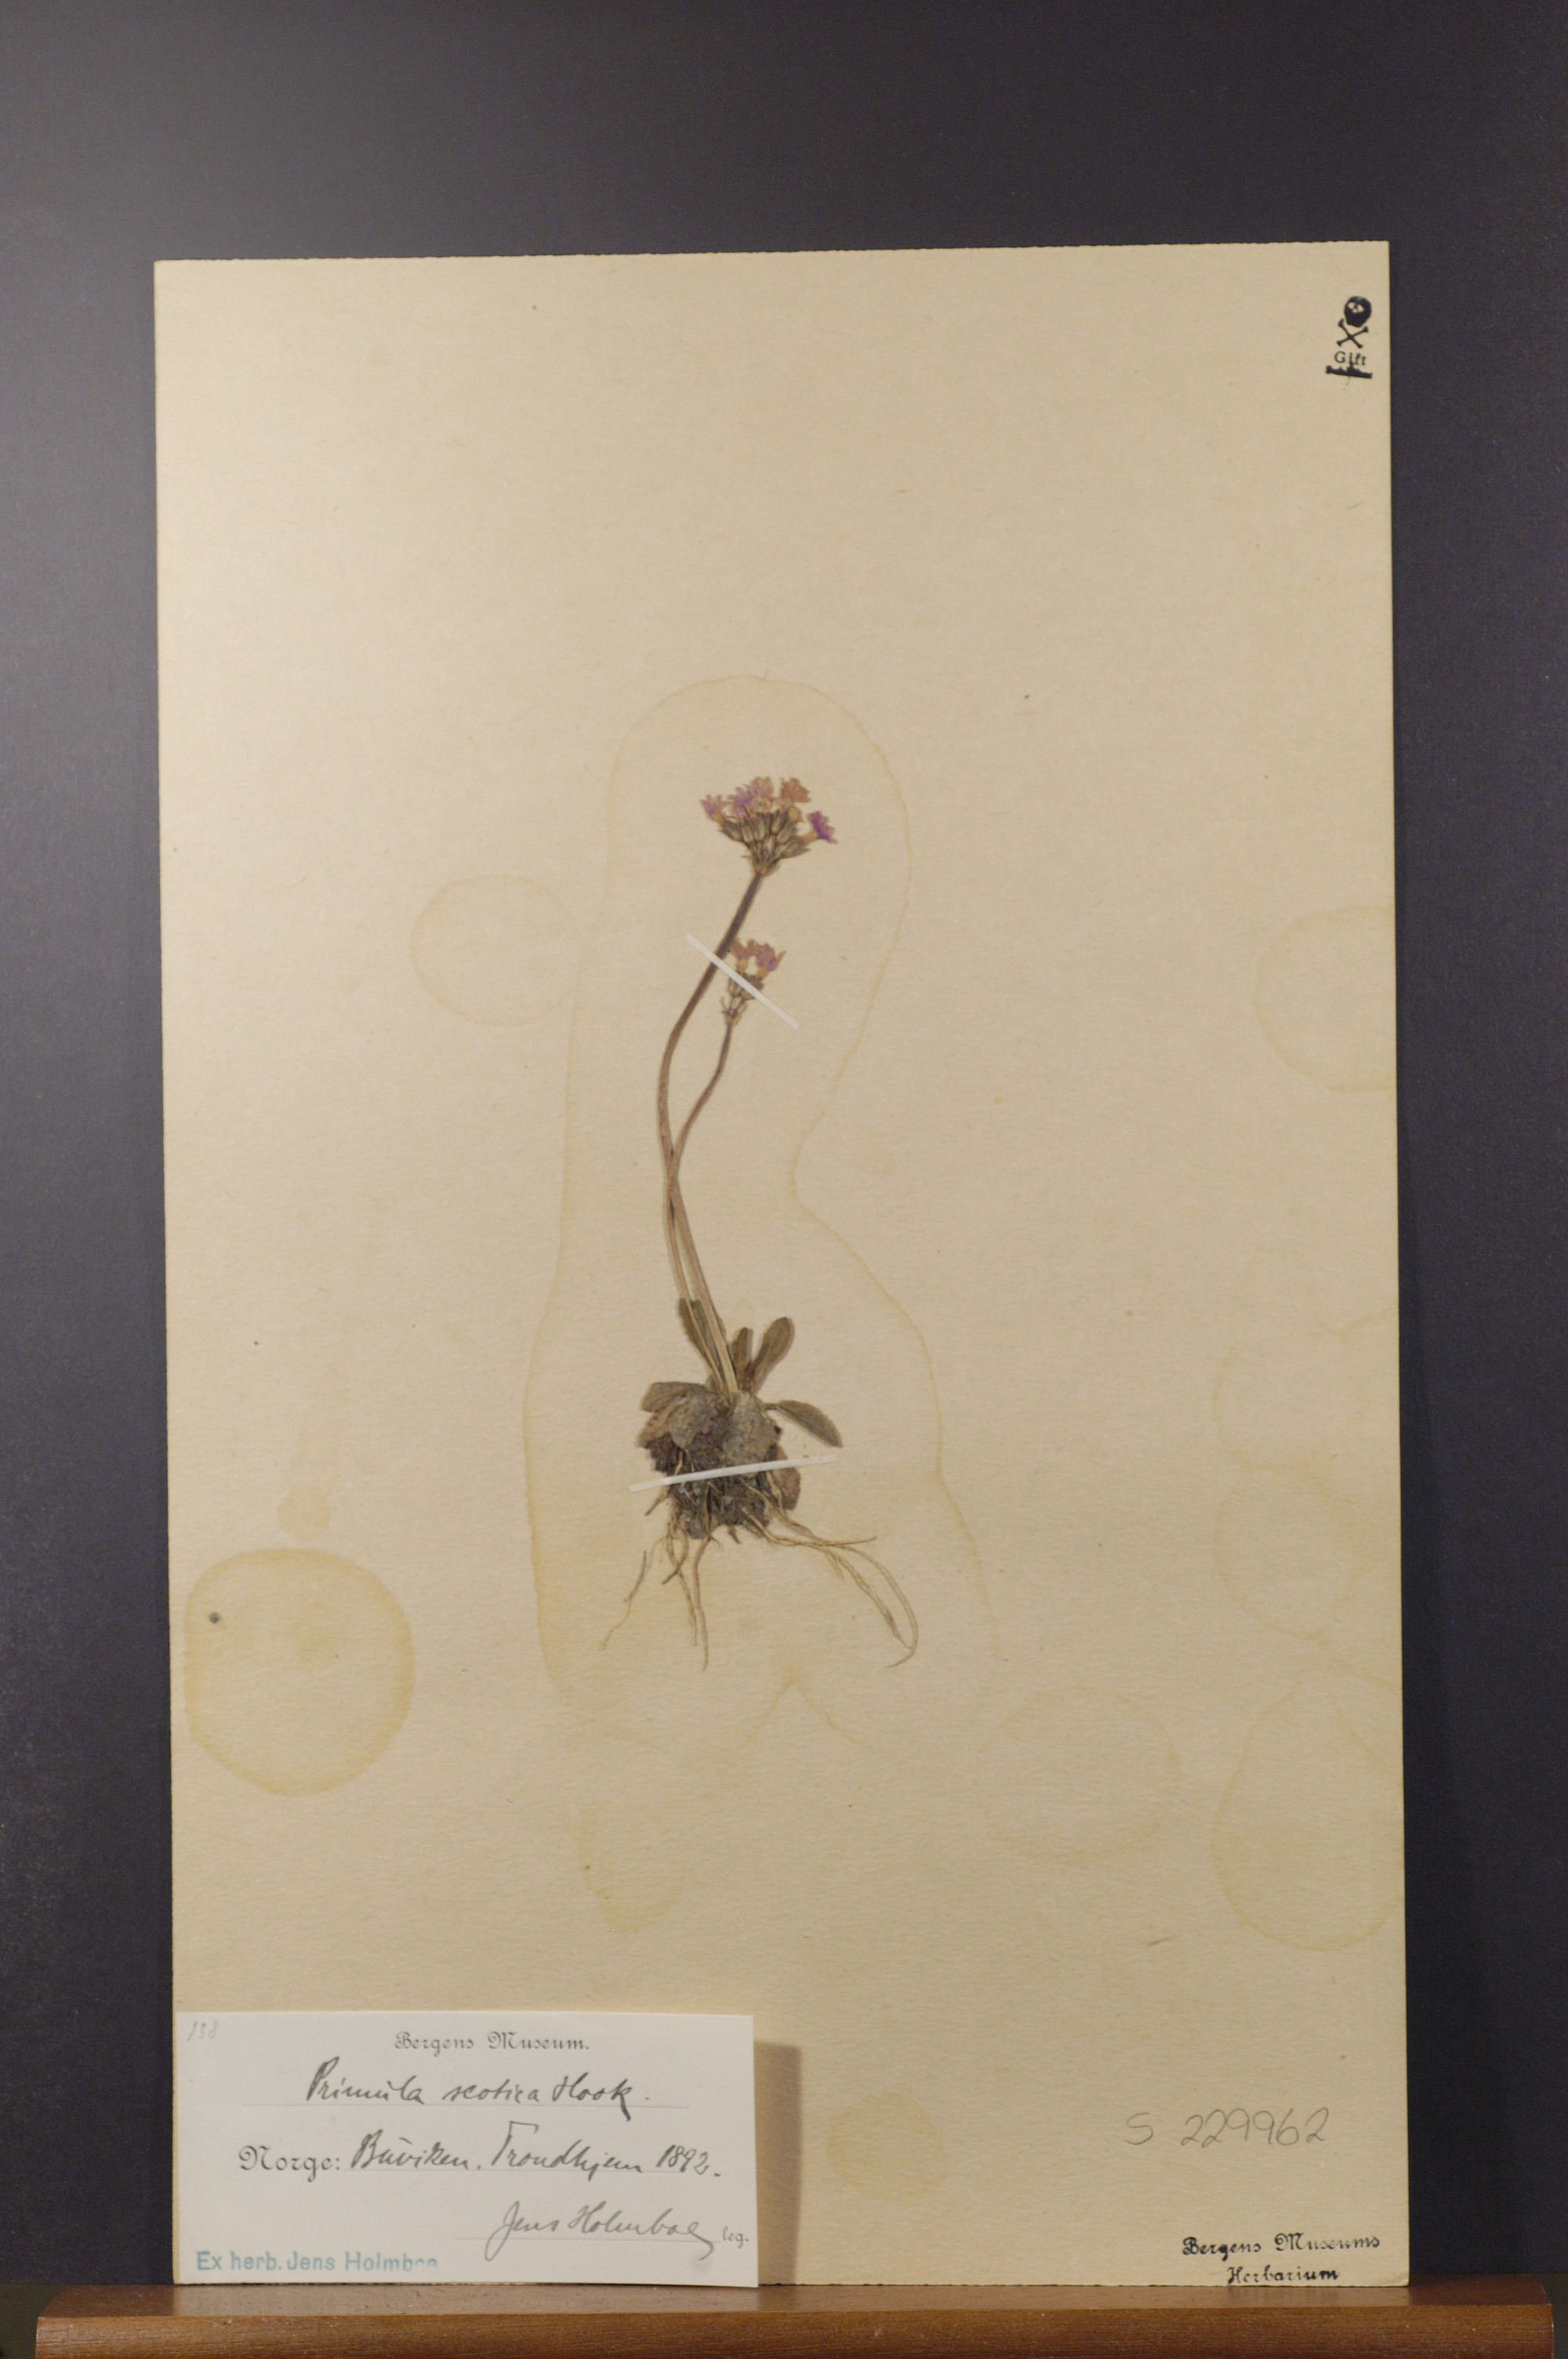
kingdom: Plantae
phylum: Tracheophyta
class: Magnoliopsida
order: Ericales
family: Primulaceae
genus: Primula
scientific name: Primula scotica
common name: Scottish primrose
